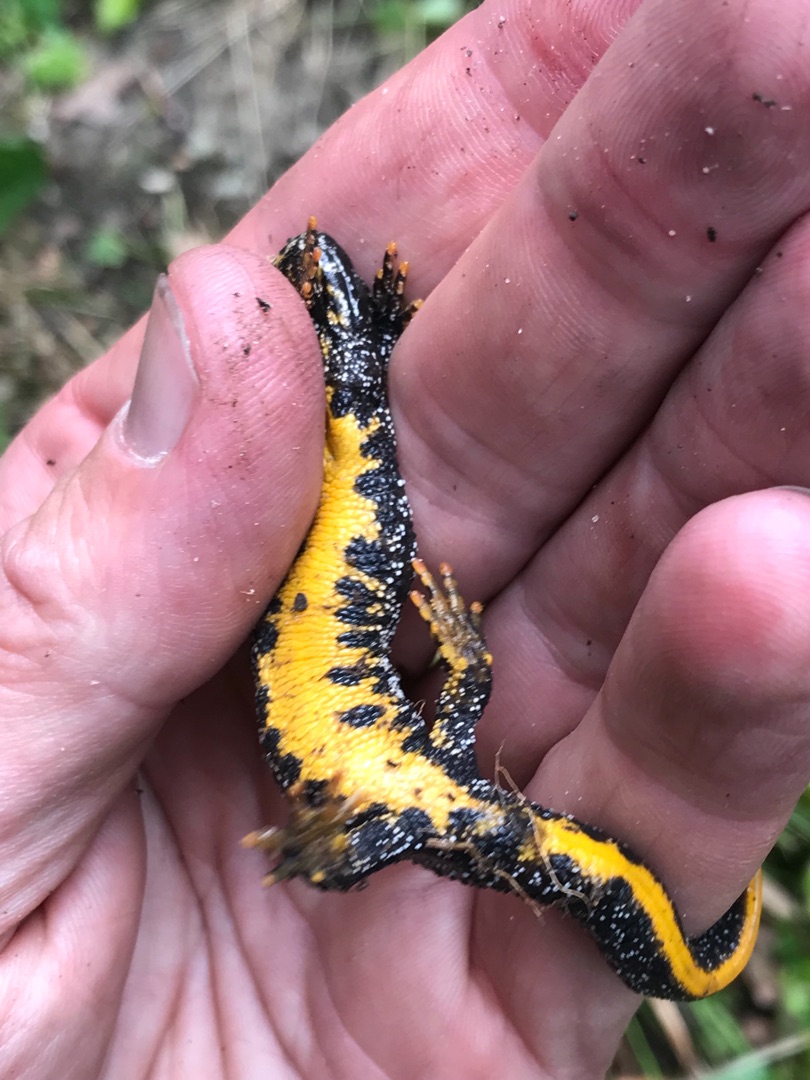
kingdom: Animalia
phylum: Chordata
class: Amphibia
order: Caudata
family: Salamandridae
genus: Triturus
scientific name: Triturus cristatus
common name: Stor vandsalamander
